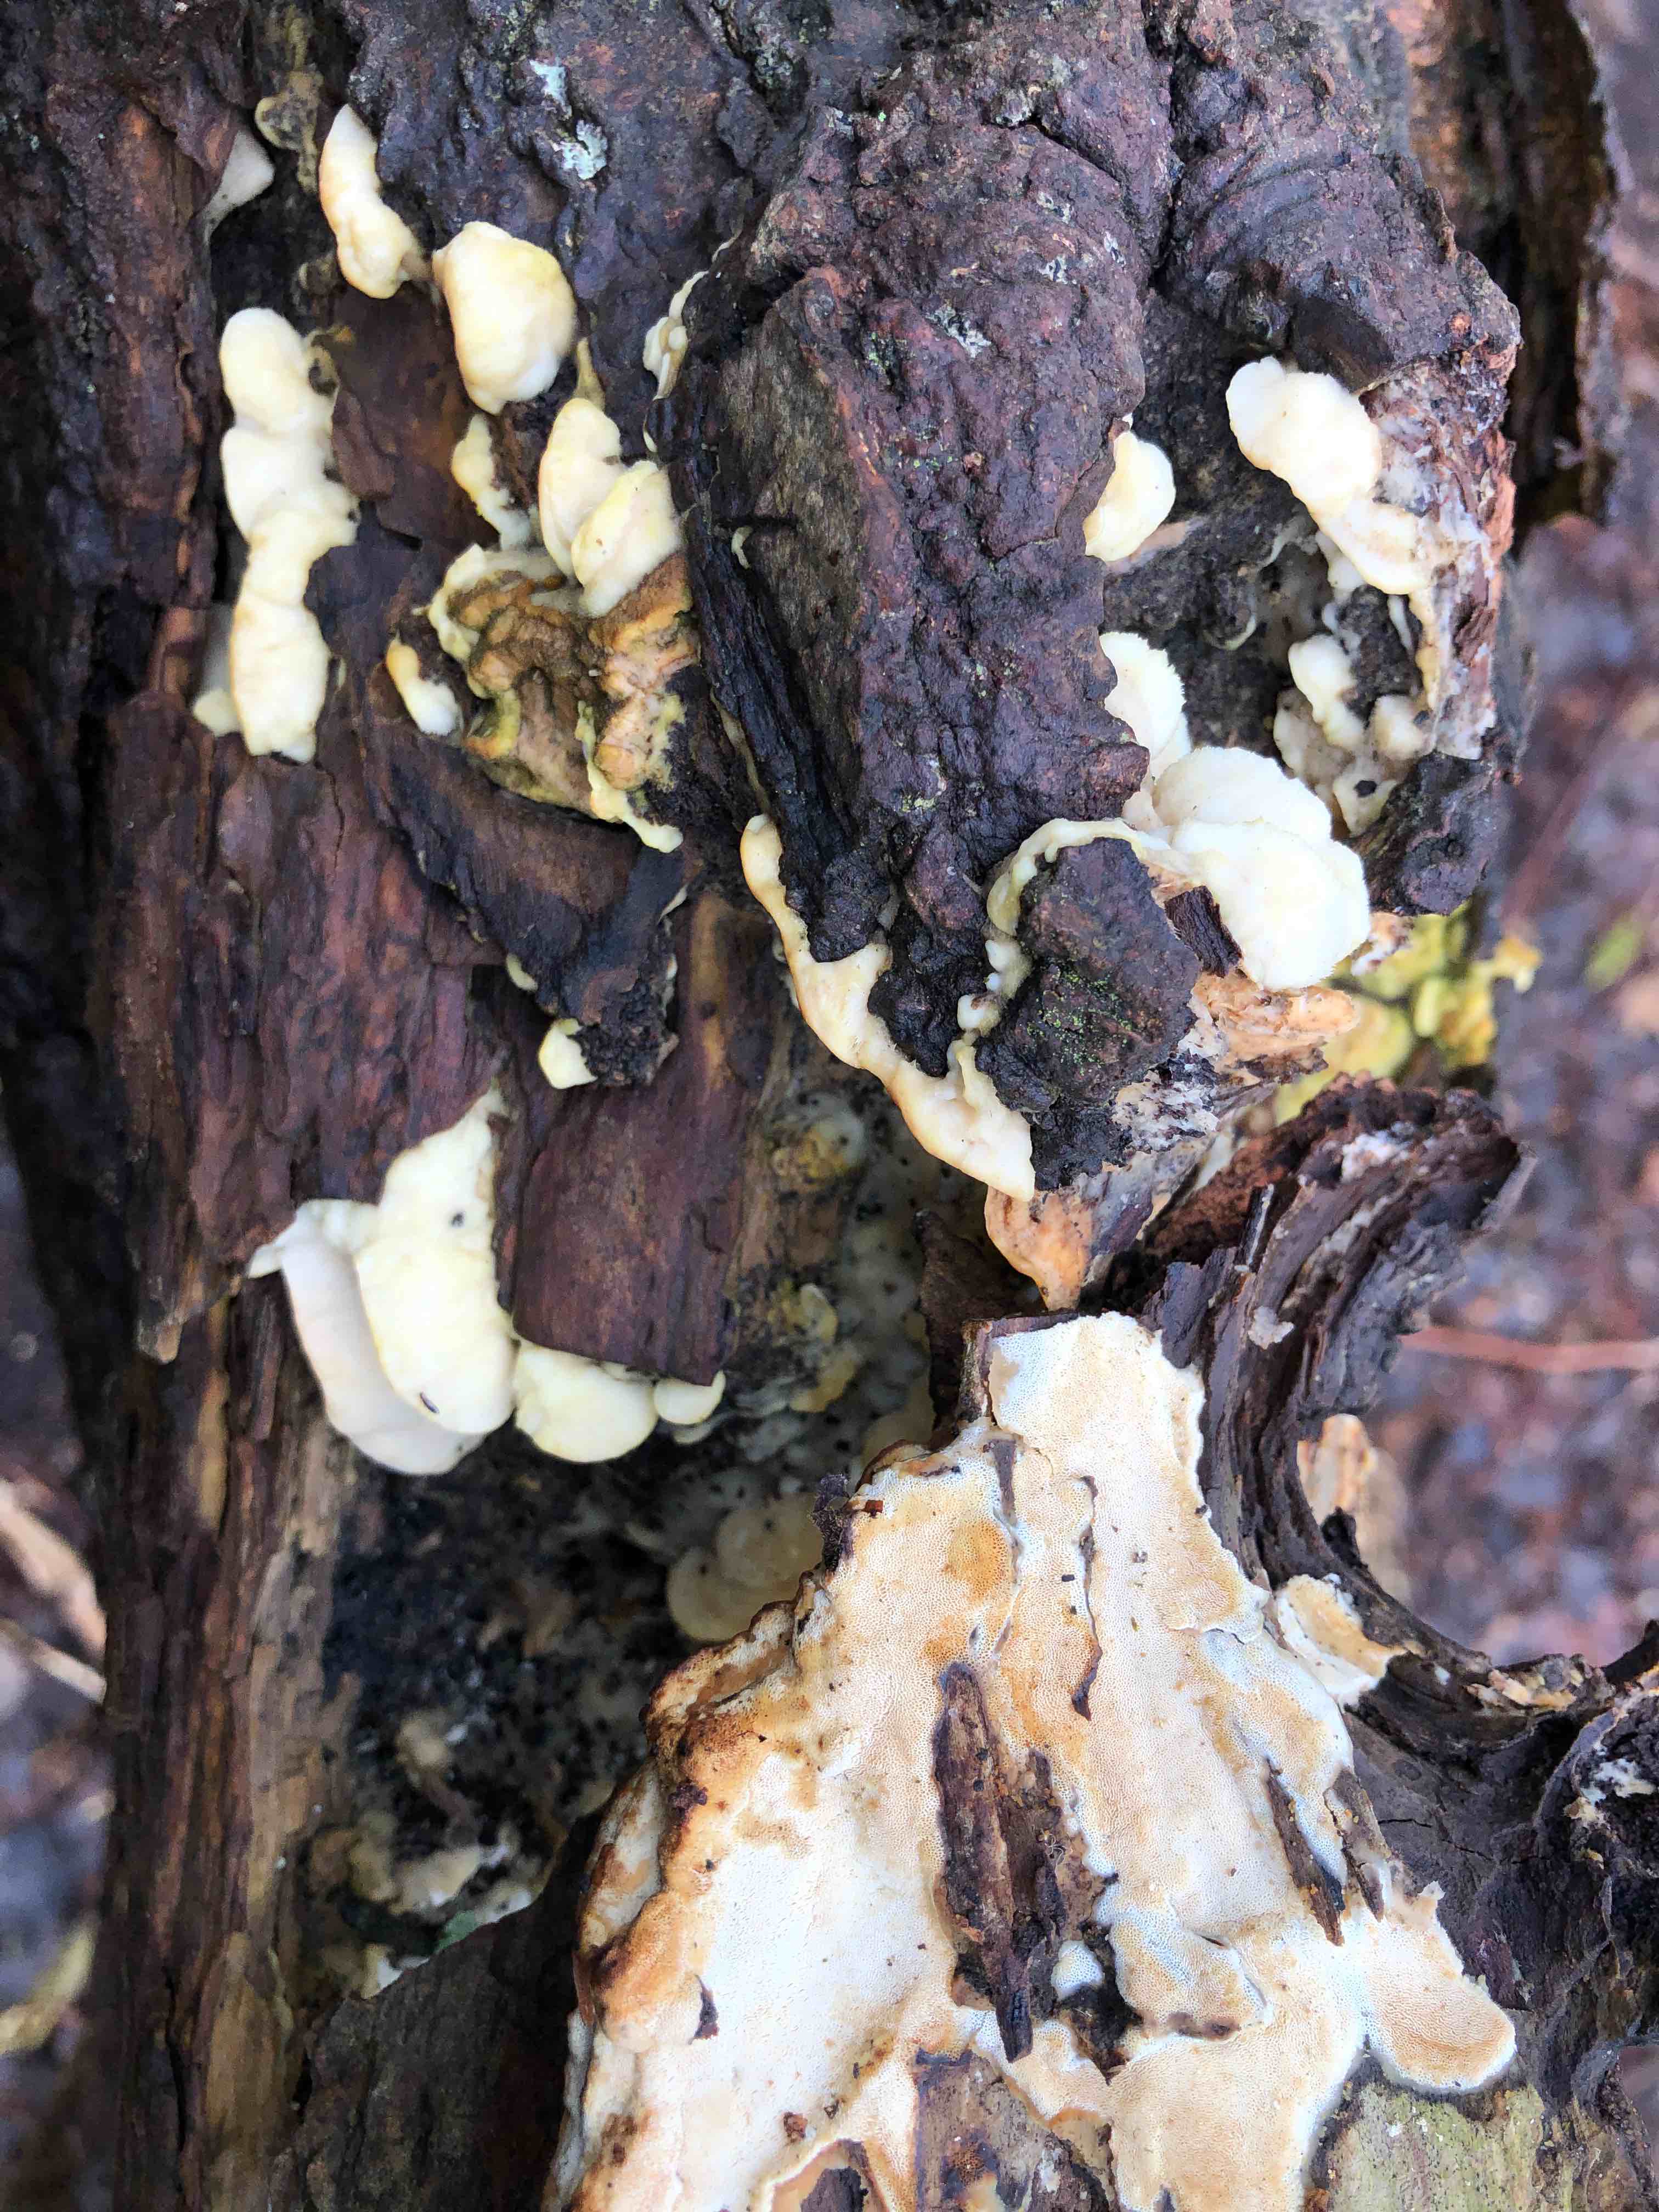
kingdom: Fungi
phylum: Basidiomycota
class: Agaricomycetes
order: Hymenochaetales
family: Oxyporaceae
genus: Oxyporus
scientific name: Oxyporus populinus
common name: sammenvokset trylleporesvamp
